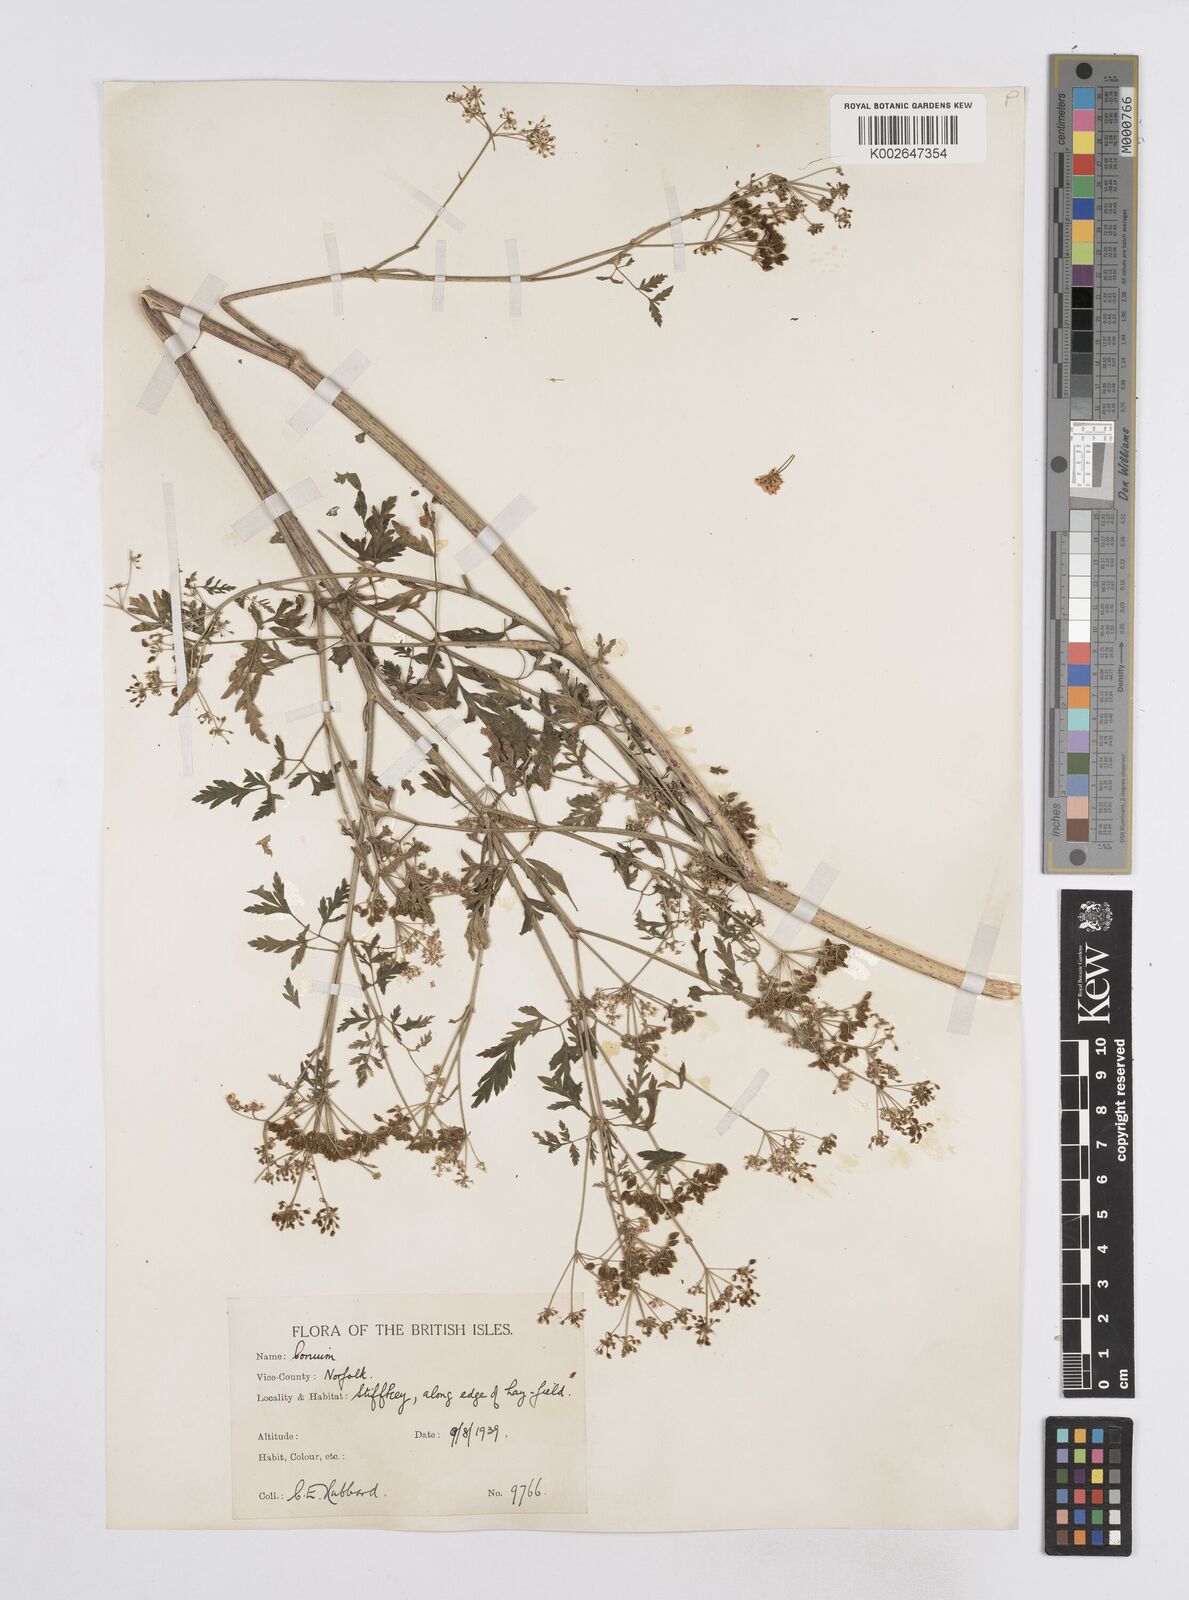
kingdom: Plantae
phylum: Tracheophyta
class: Magnoliopsida
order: Apiales
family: Apiaceae
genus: Conium
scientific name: Conium maculatum
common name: Hemlock
